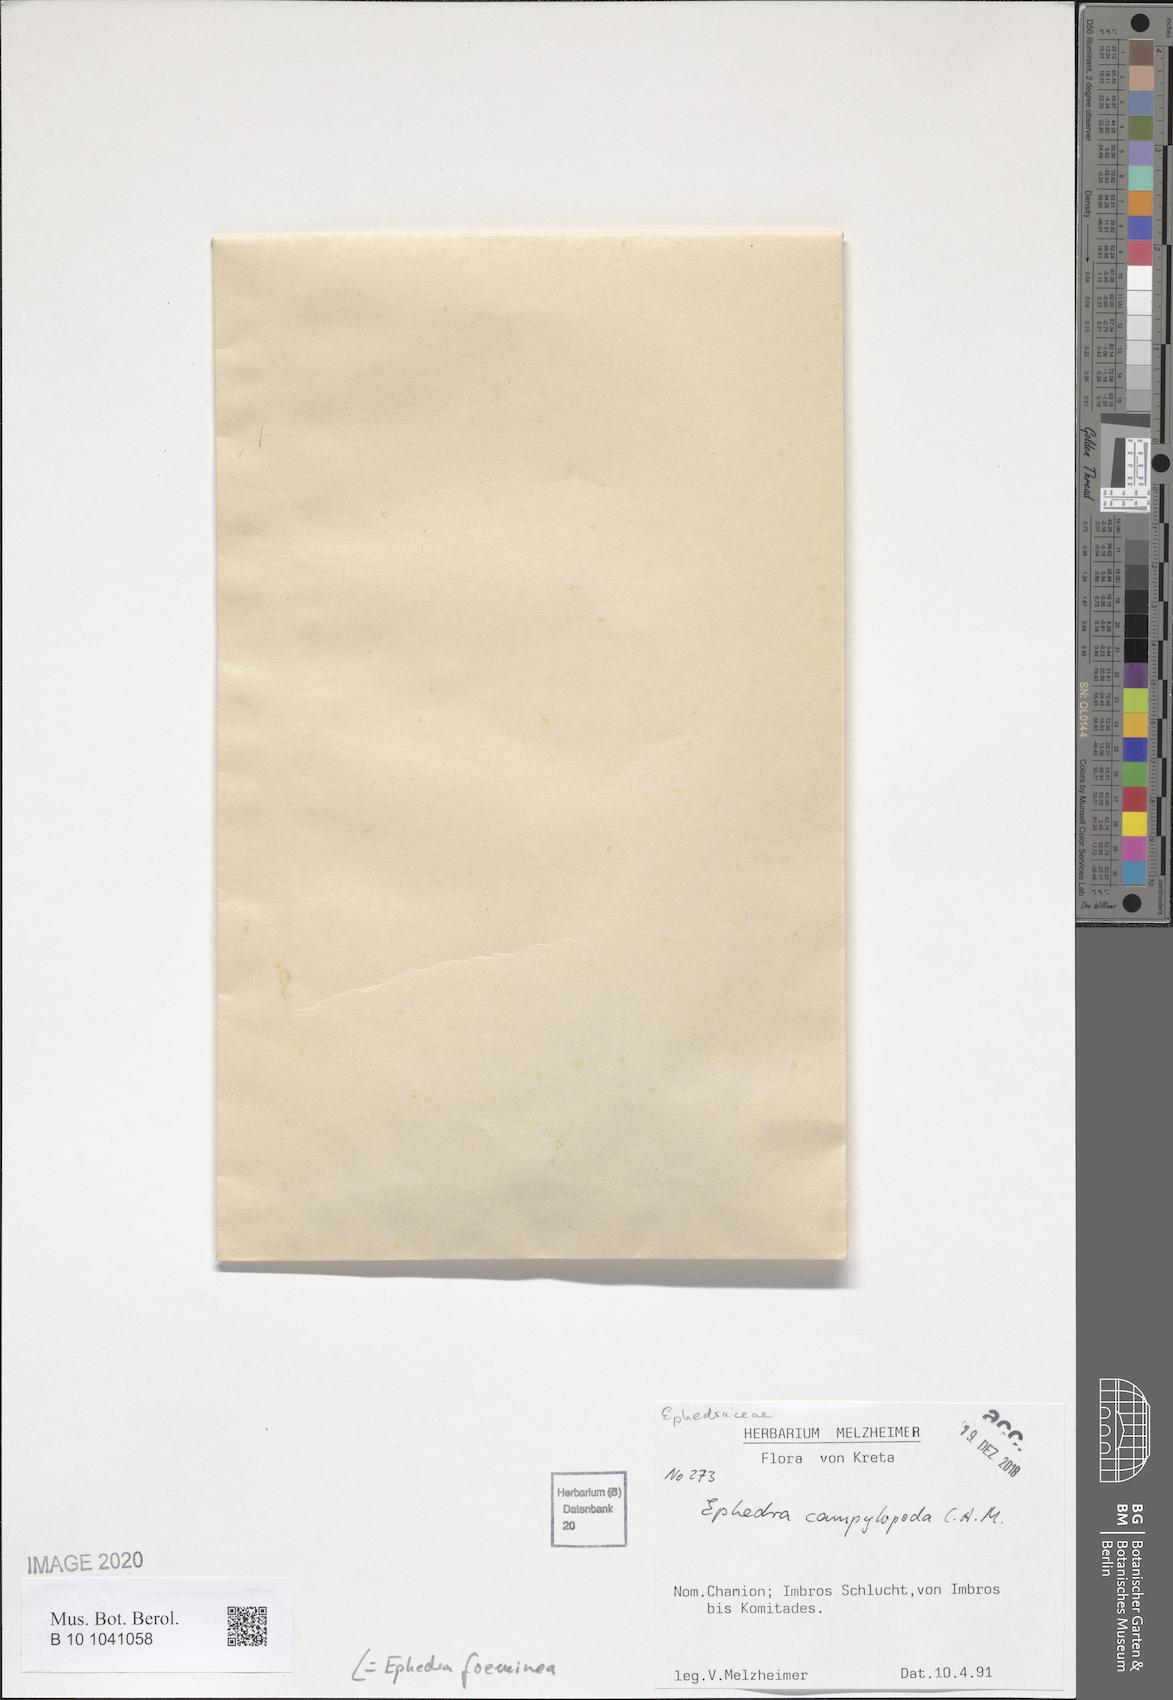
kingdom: Plantae
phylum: Tracheophyta
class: Gnetopsida
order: Ephedrales
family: Ephedraceae
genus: Ephedra
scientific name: Ephedra foeminea
